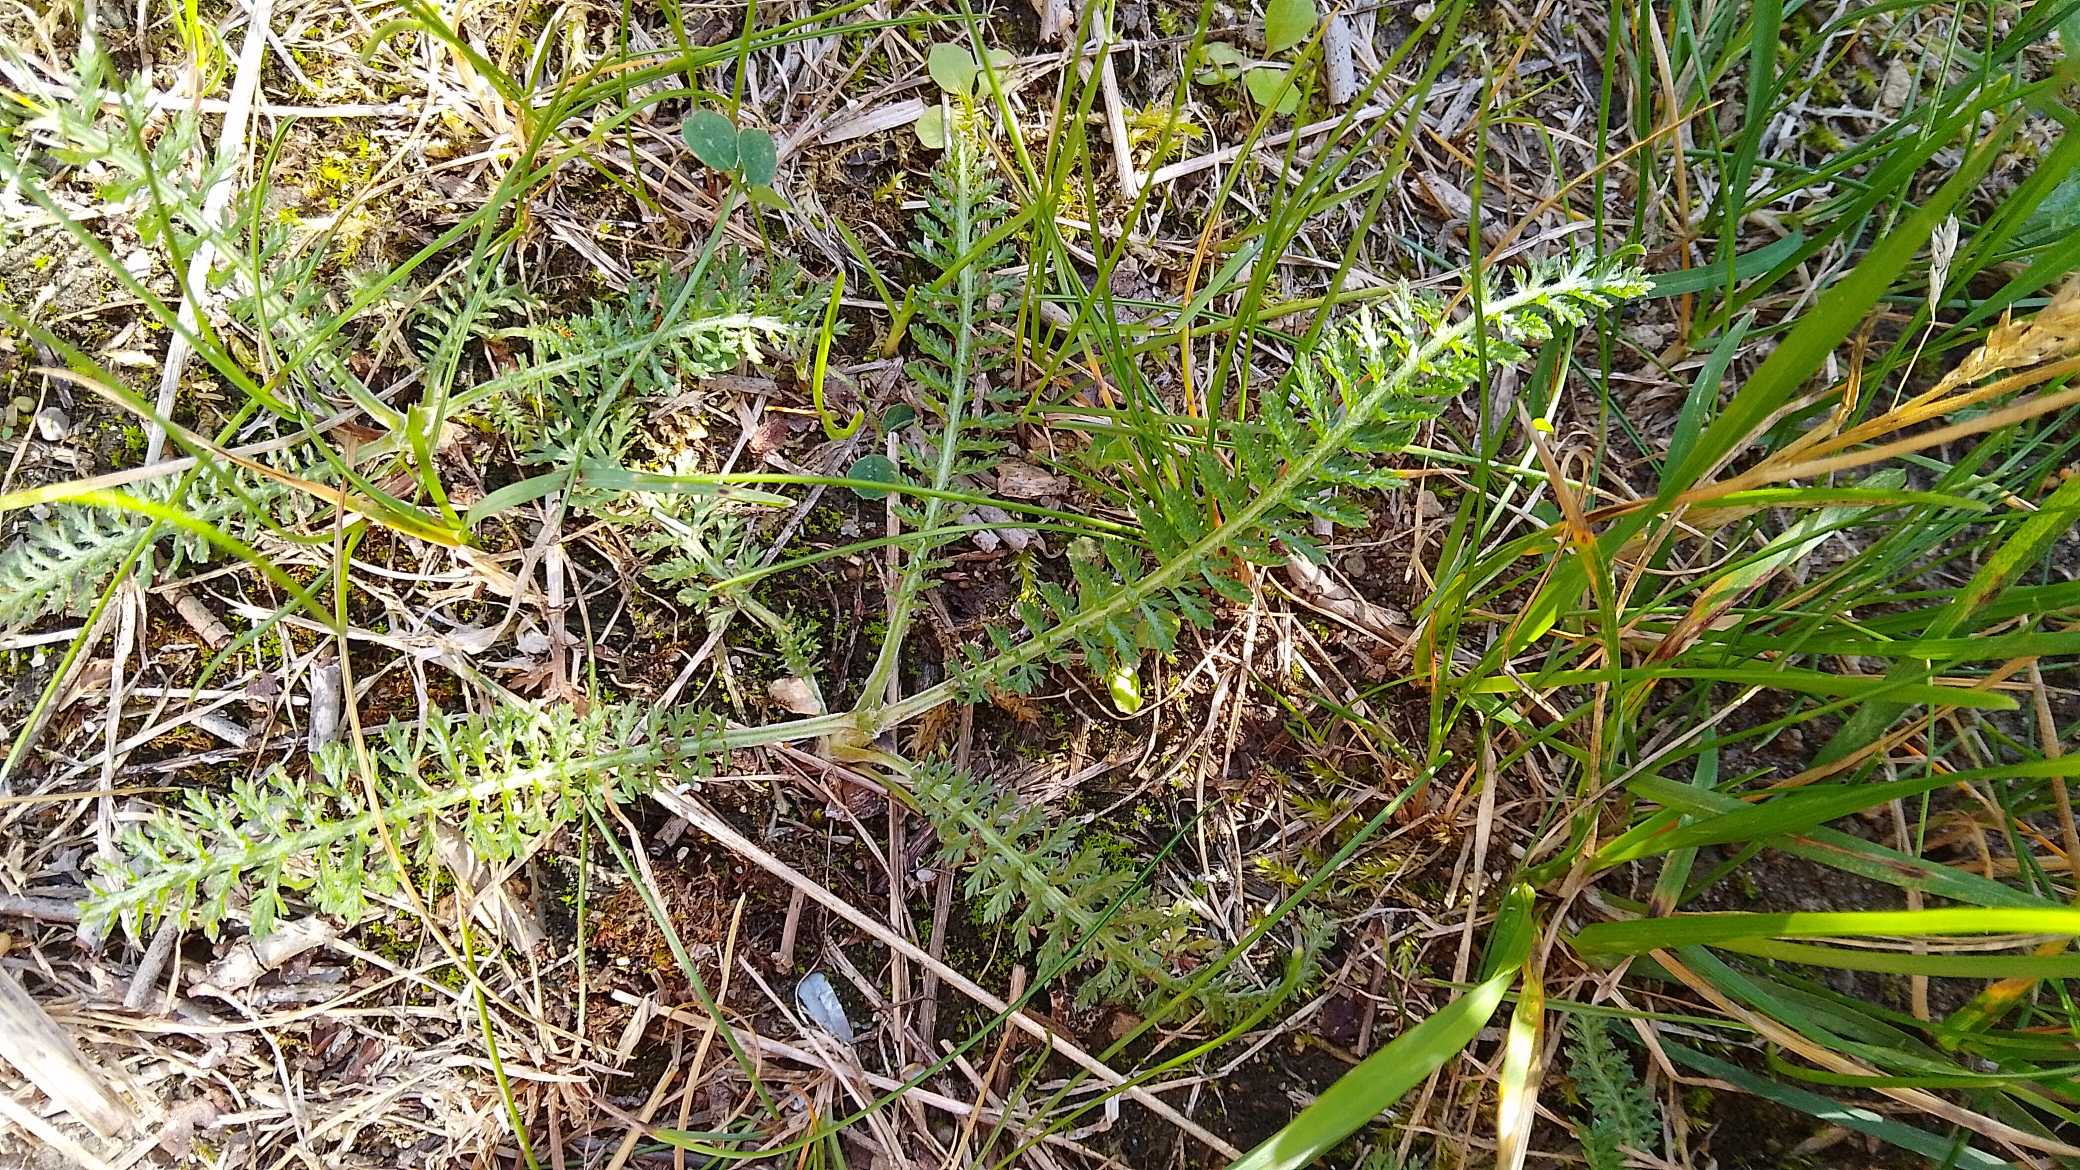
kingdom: Plantae
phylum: Tracheophyta
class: Magnoliopsida
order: Asterales
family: Asteraceae
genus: Achillea
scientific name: Achillea millefolium
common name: Almindelig røllike
